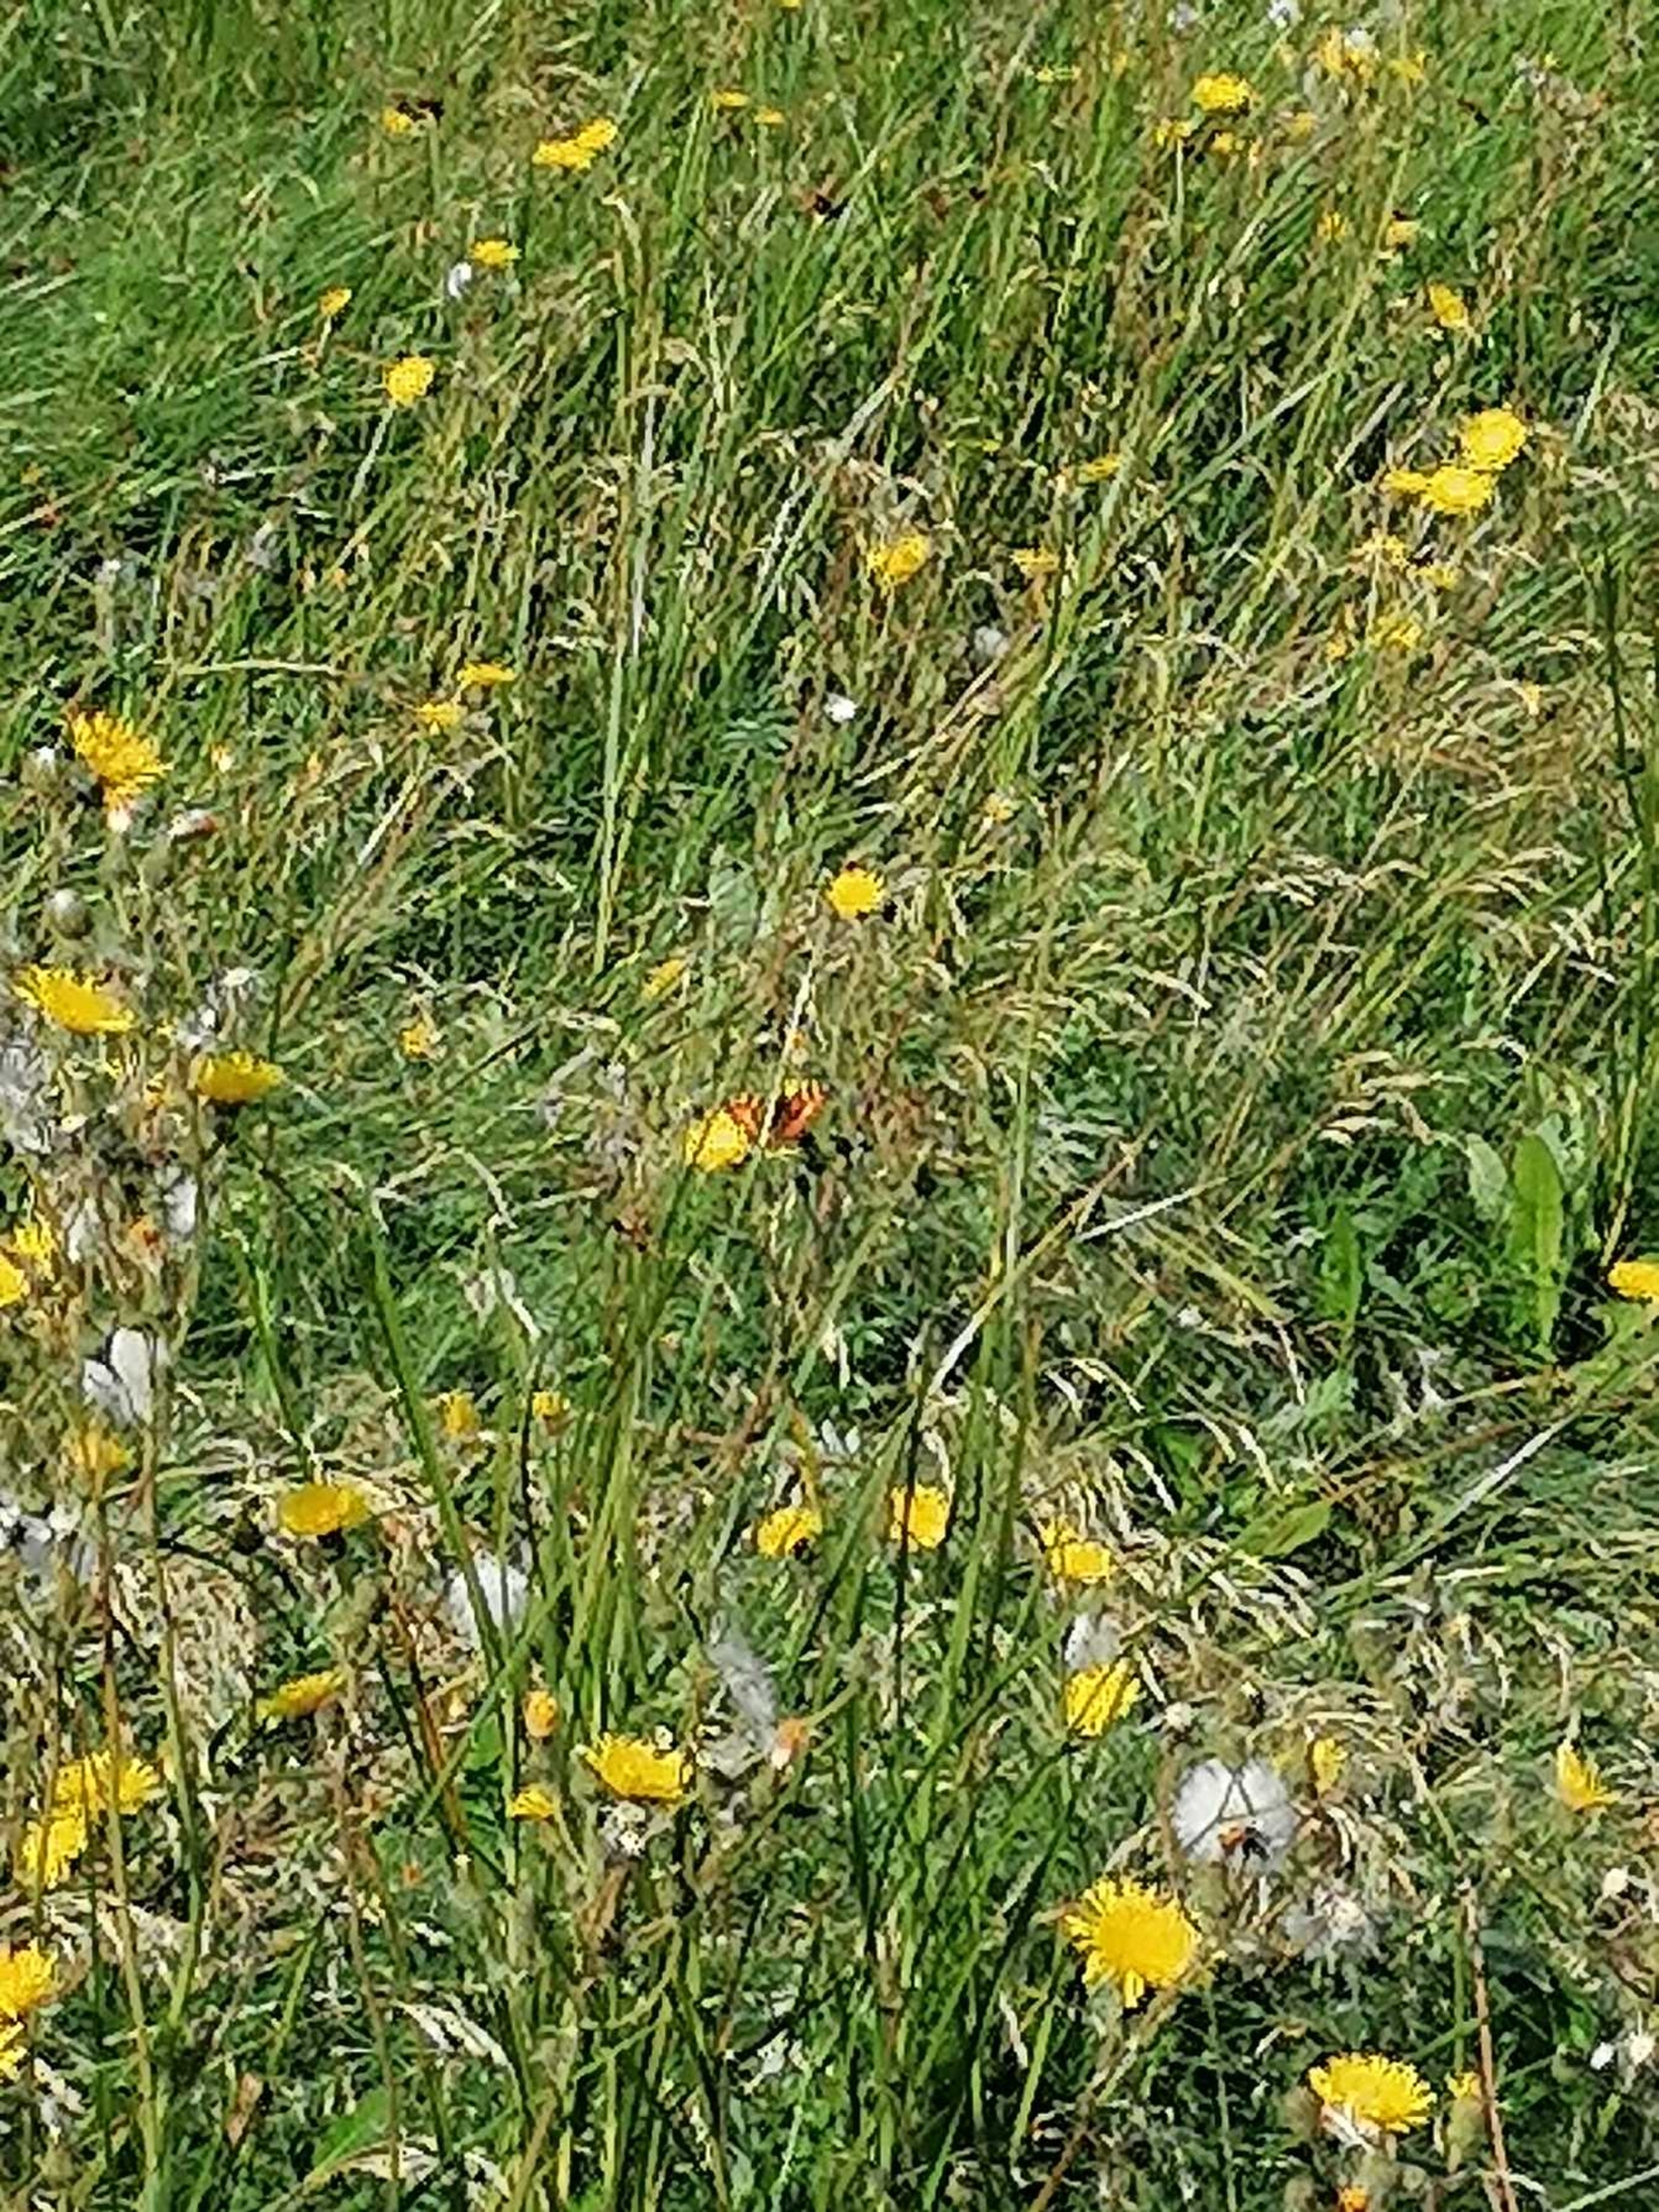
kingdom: Animalia
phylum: Arthropoda
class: Insecta
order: Lepidoptera
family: Nymphalidae
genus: Aglais
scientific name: Aglais urticae
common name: Nældens takvinge
